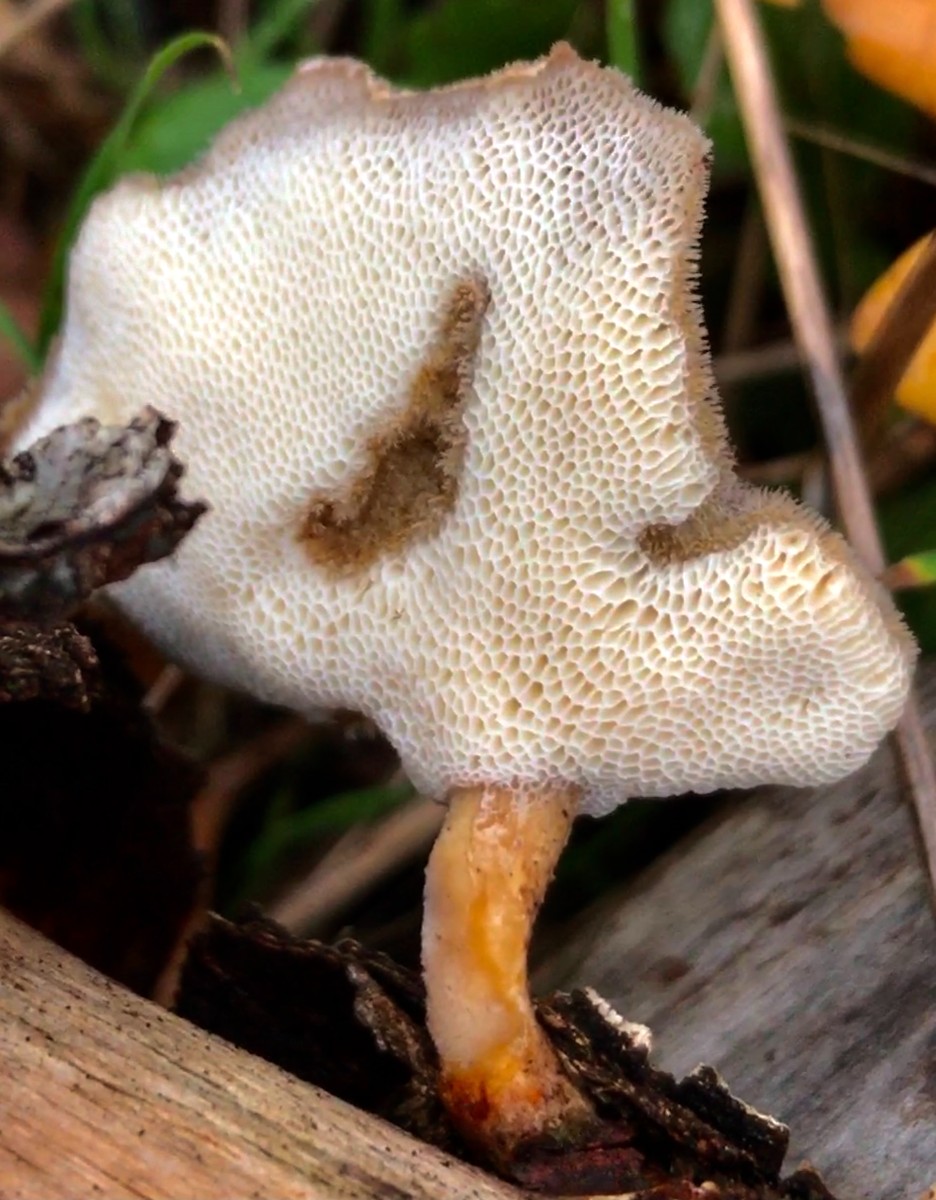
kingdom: Fungi
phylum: Basidiomycota
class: Agaricomycetes
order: Polyporales
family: Polyporaceae
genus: Lentinus
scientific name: Lentinus brumalis
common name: vinter-stilkporesvamp
